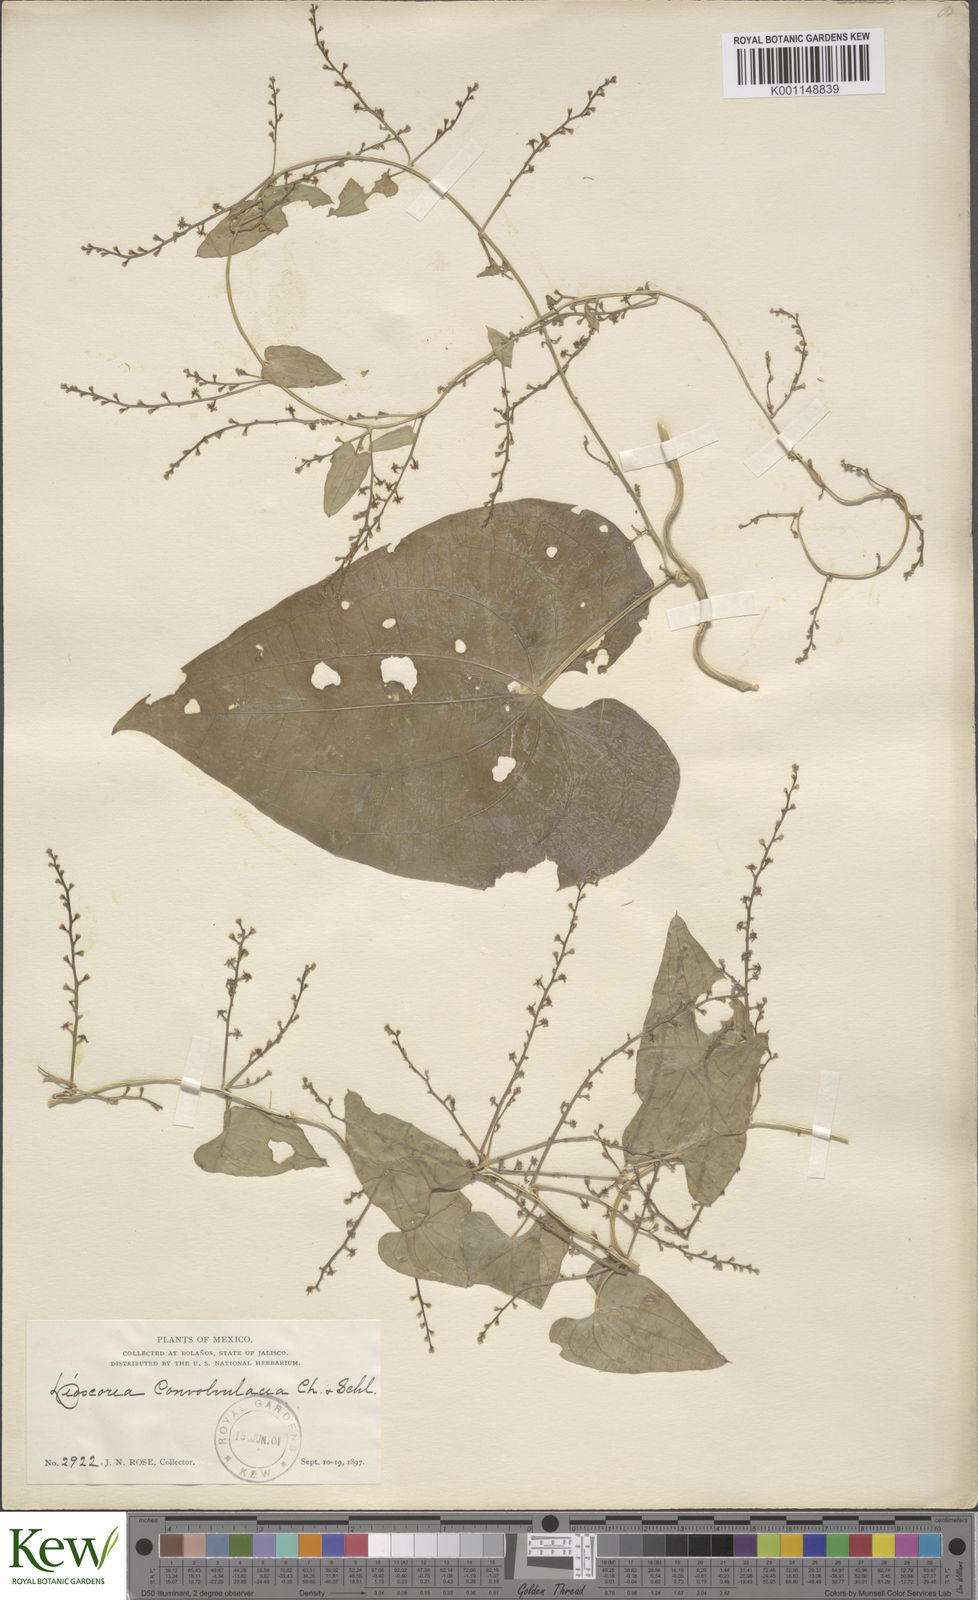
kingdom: Plantae
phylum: Tracheophyta
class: Liliopsida
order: Dioscoreales
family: Dioscoreaceae
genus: Dioscorea
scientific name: Dioscorea convolvulacea
